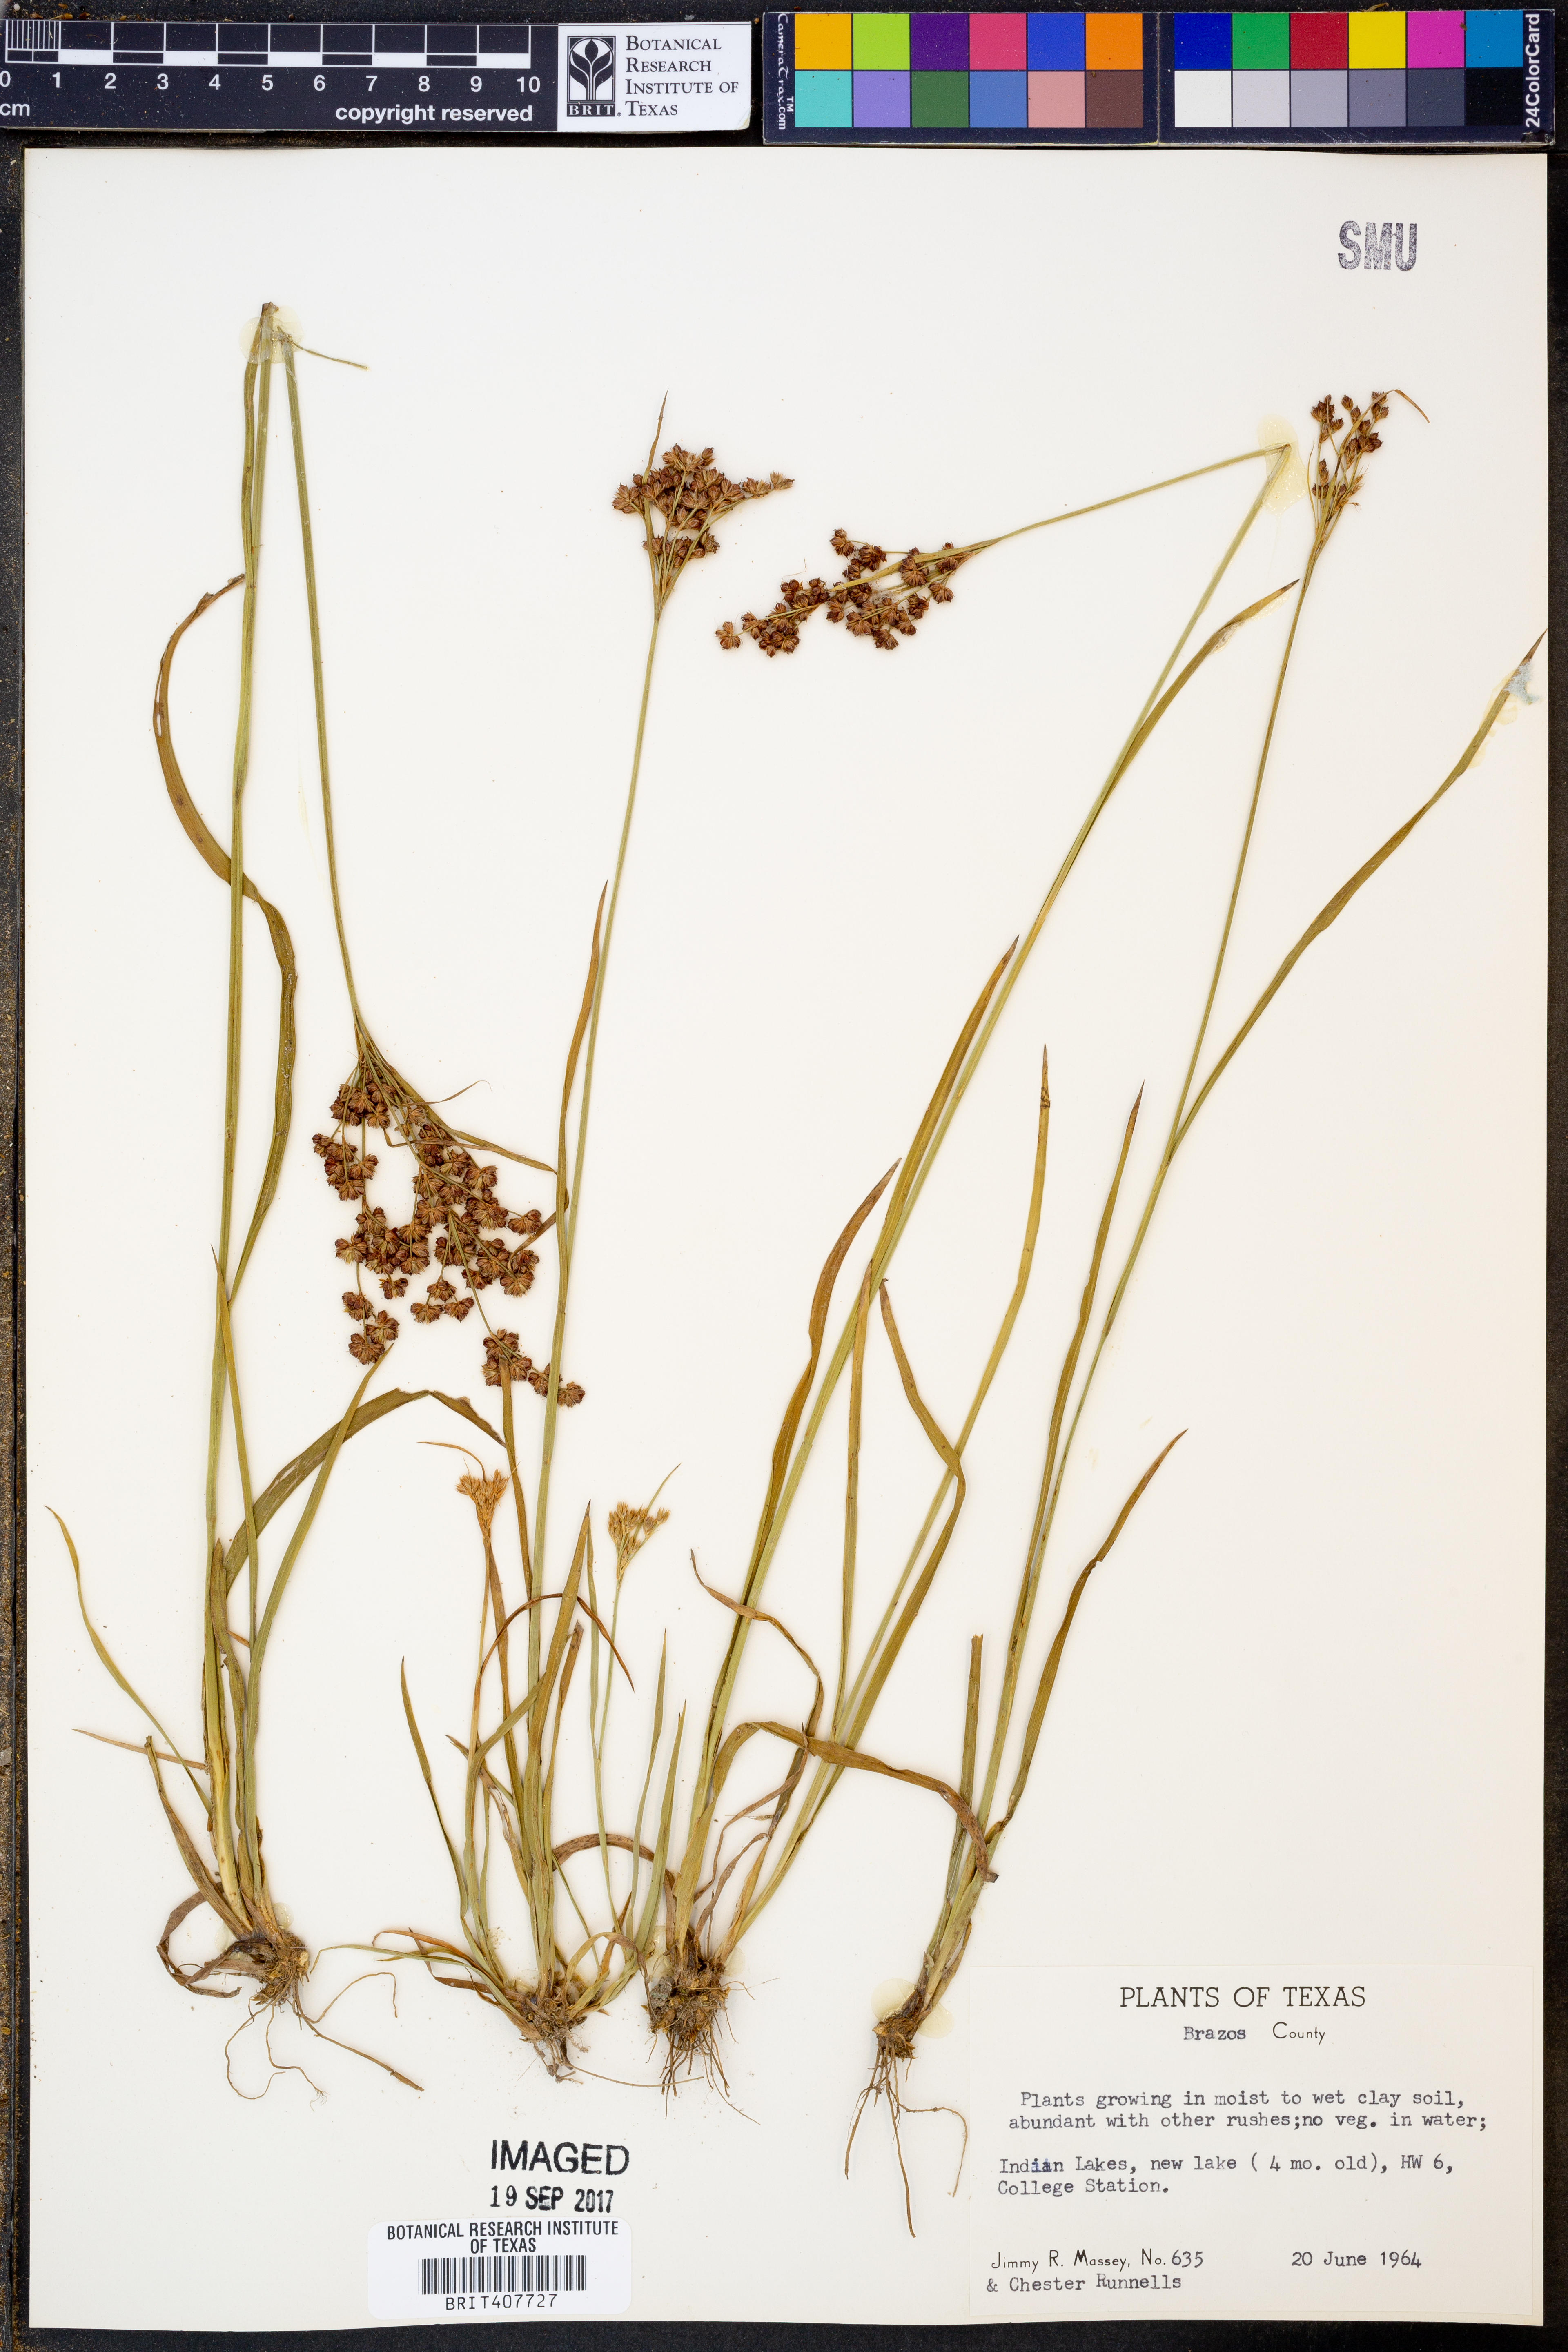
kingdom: Plantae
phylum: Tracheophyta
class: Liliopsida
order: Poales
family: Cyperaceae
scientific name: Cyperaceae
